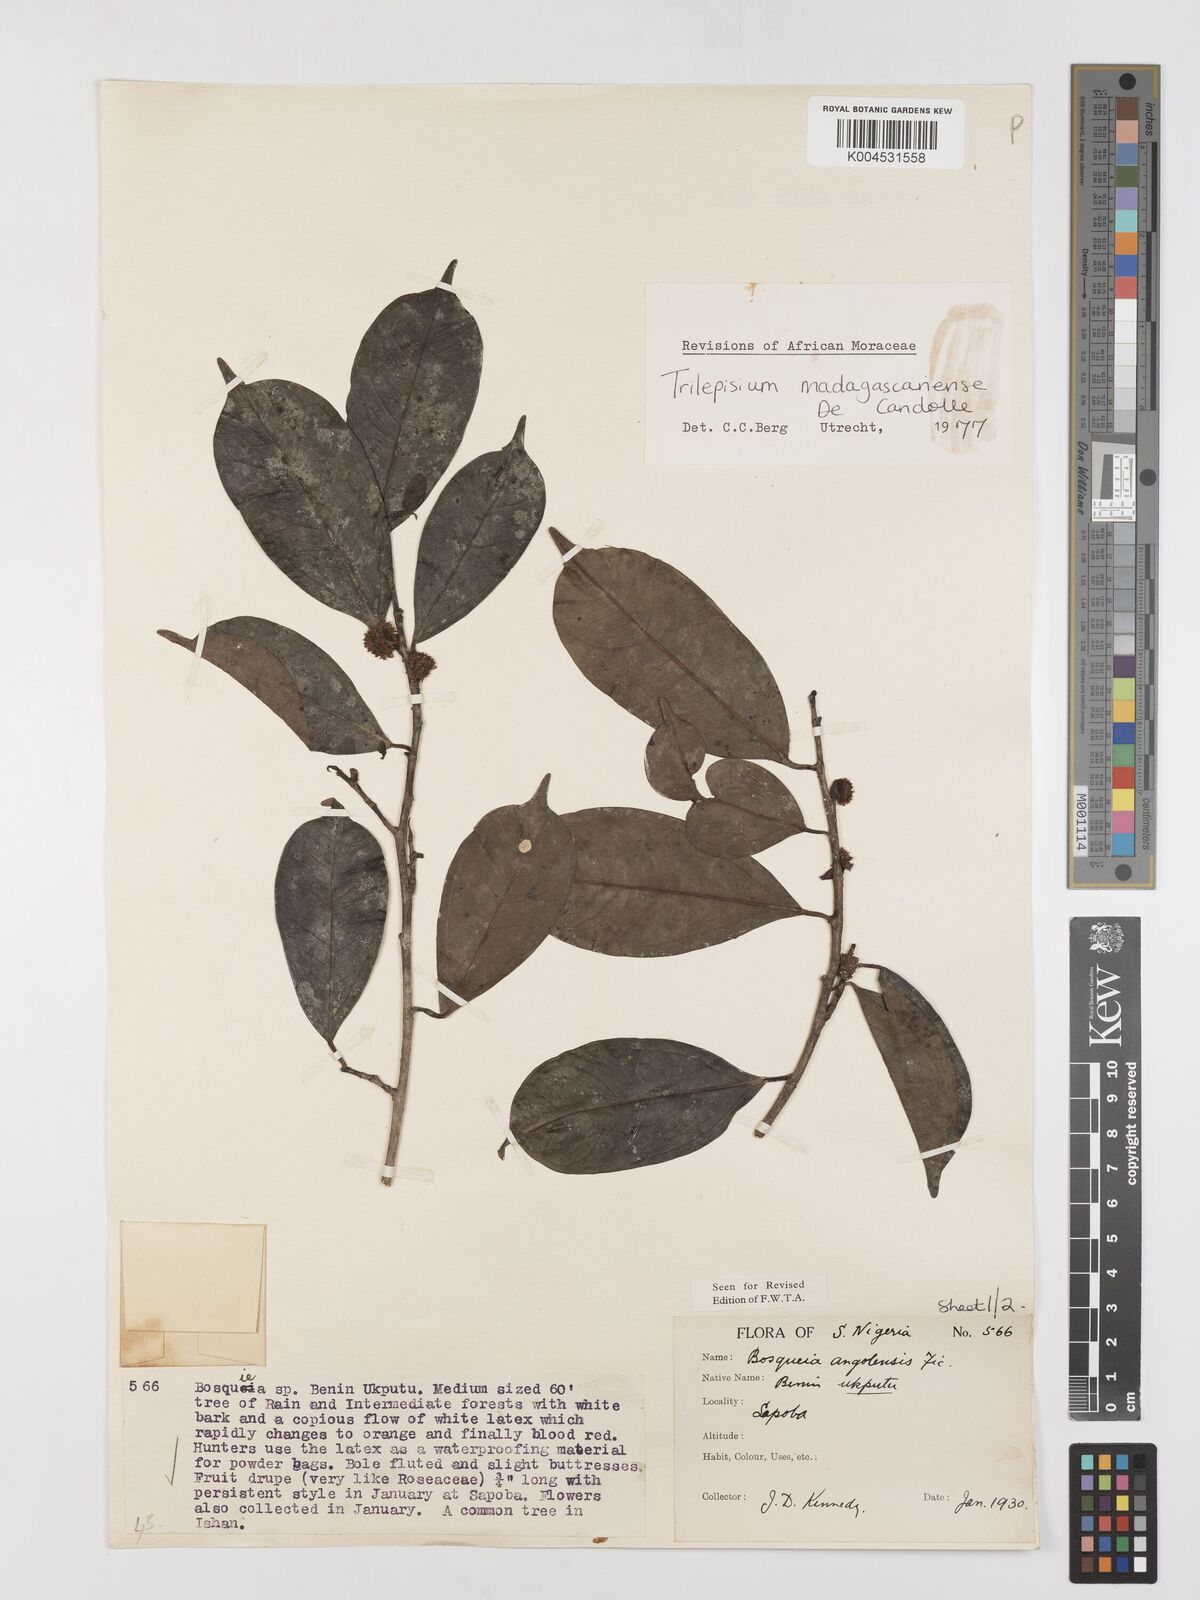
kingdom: Plantae
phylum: Tracheophyta
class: Magnoliopsida
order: Rosales
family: Moraceae
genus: Trilepisium
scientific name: Trilepisium madagascariense
